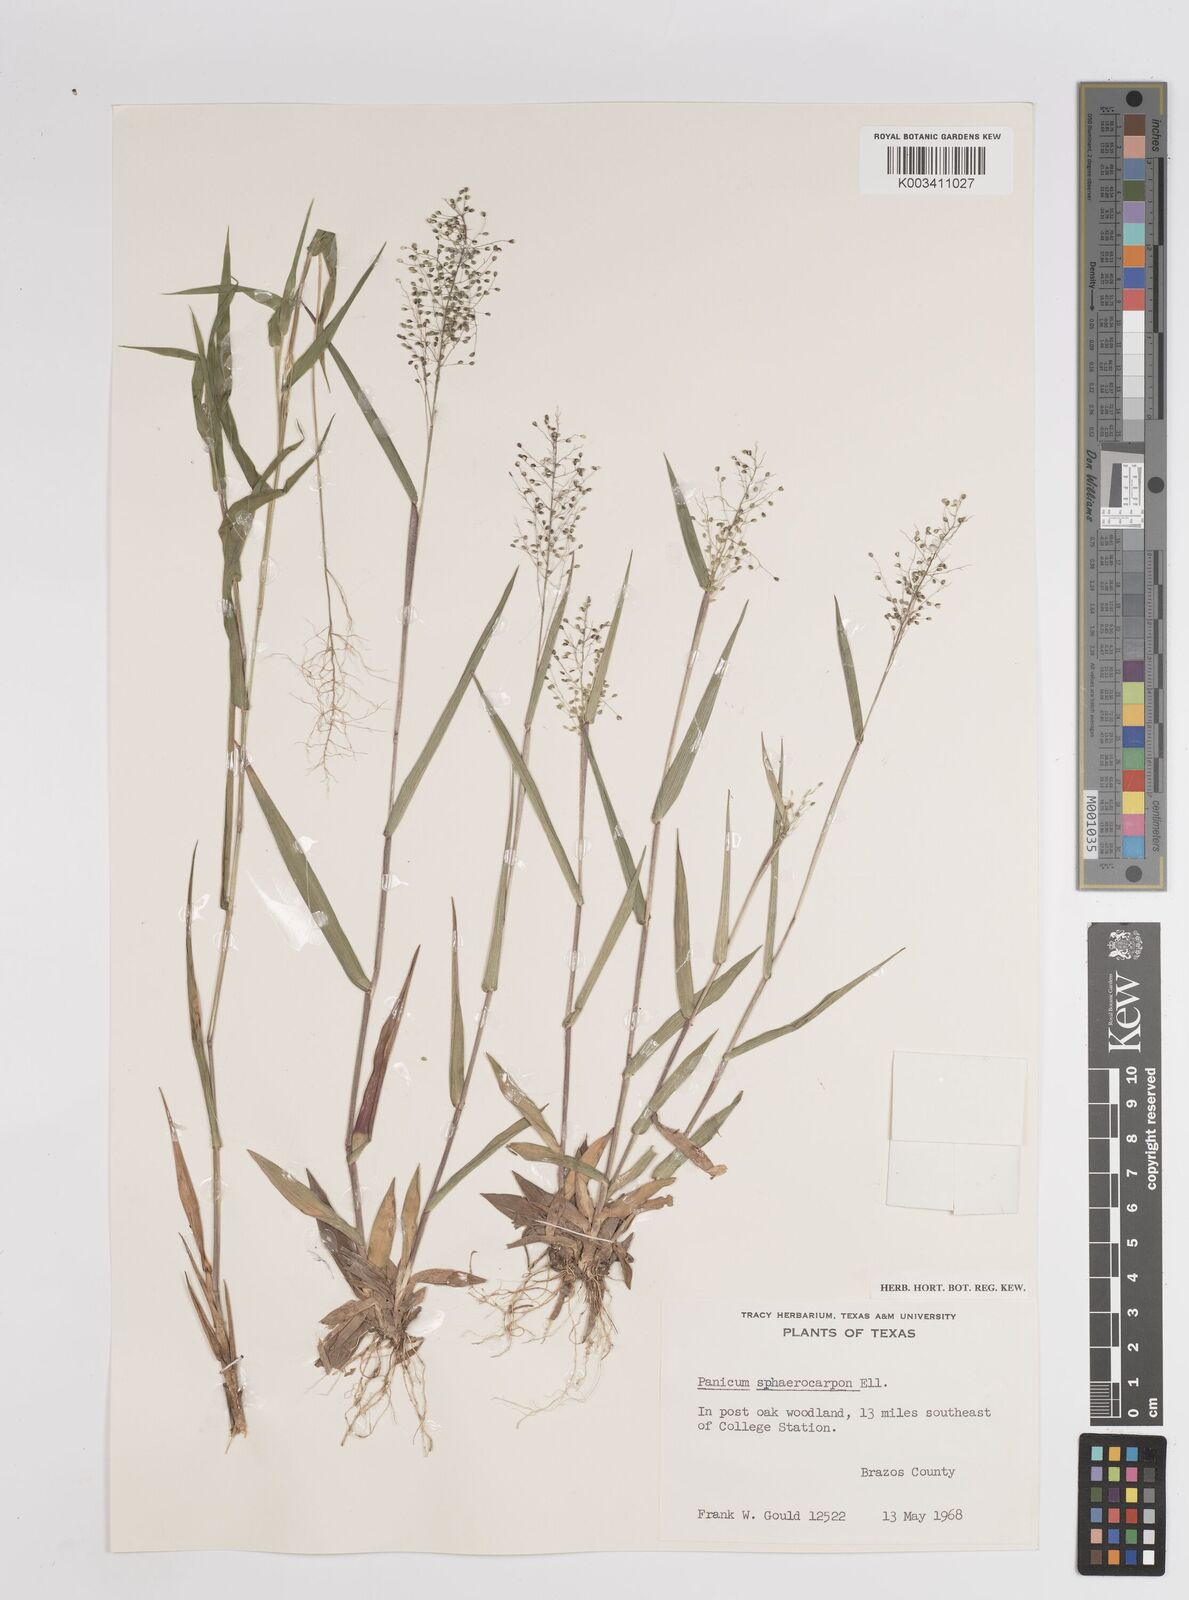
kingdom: Plantae
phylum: Tracheophyta
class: Liliopsida
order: Poales
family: Poaceae
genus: Setaria
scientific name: Setaria tenax
